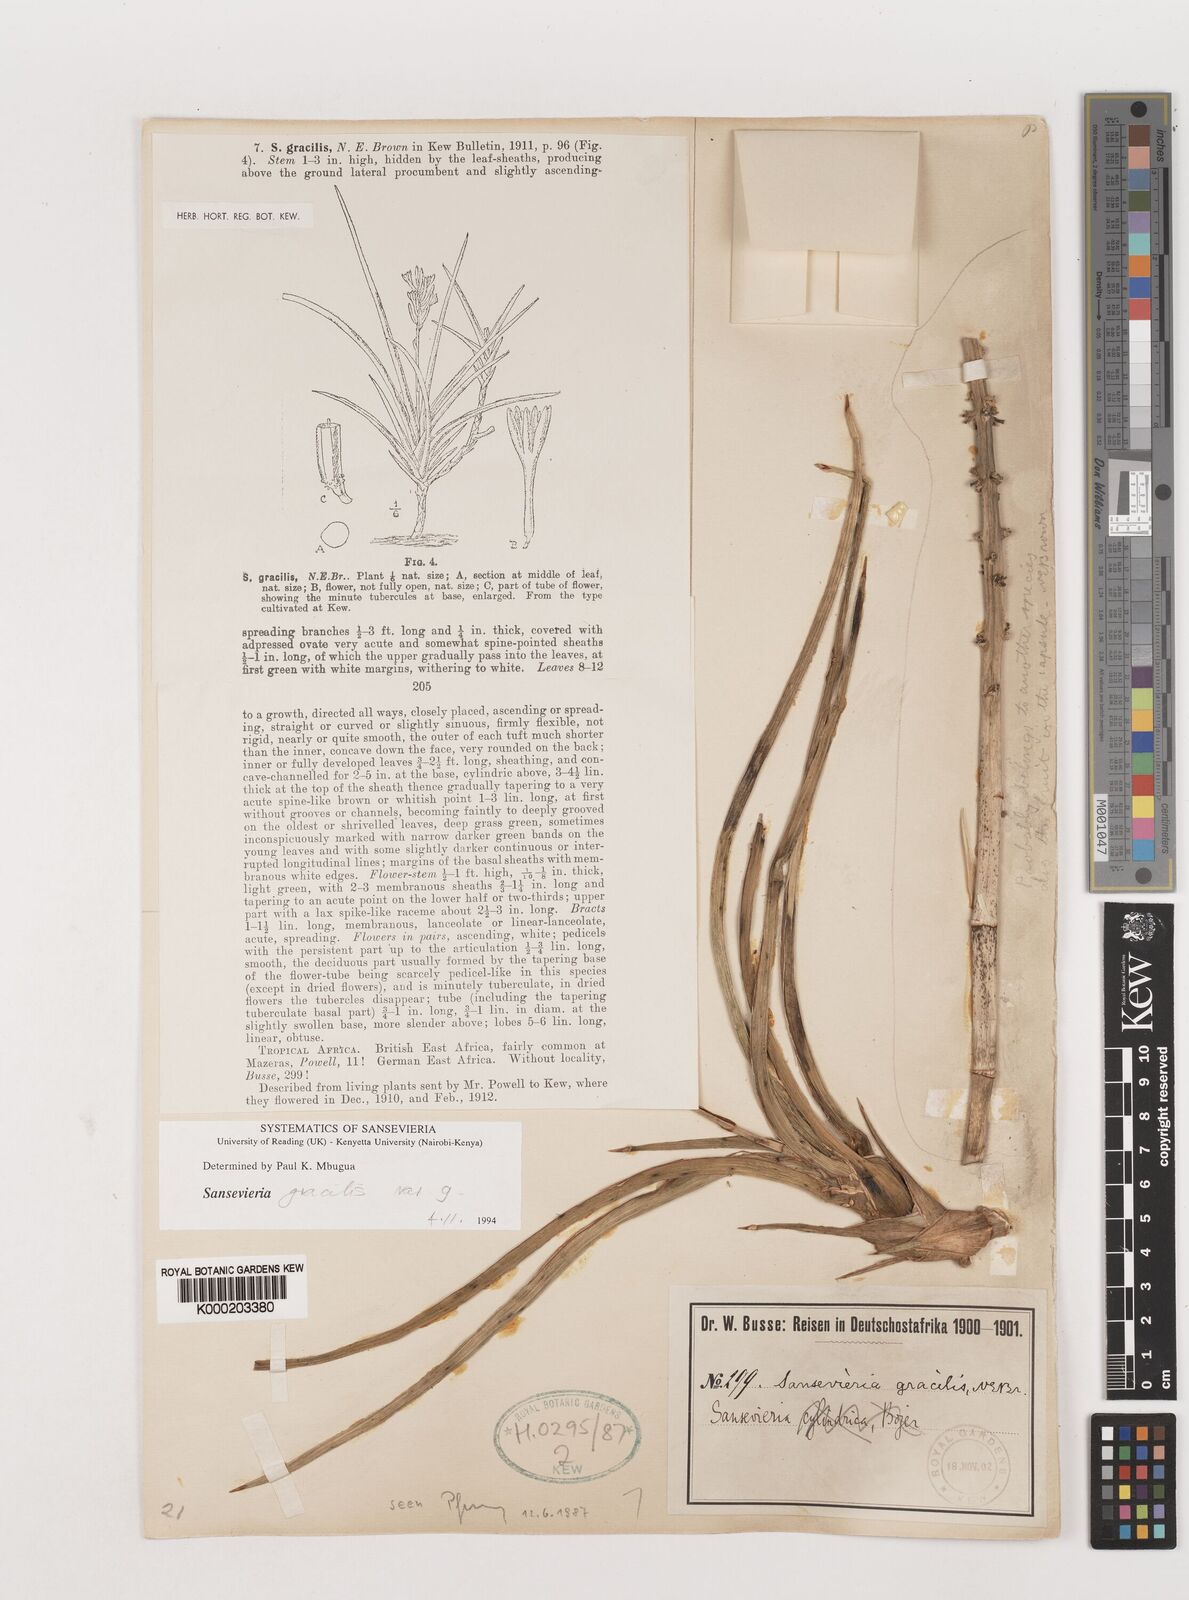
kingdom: Plantae
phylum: Tracheophyta
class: Liliopsida
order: Asparagales
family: Asparagaceae
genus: Dracaena
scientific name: Dracaena serpenta
